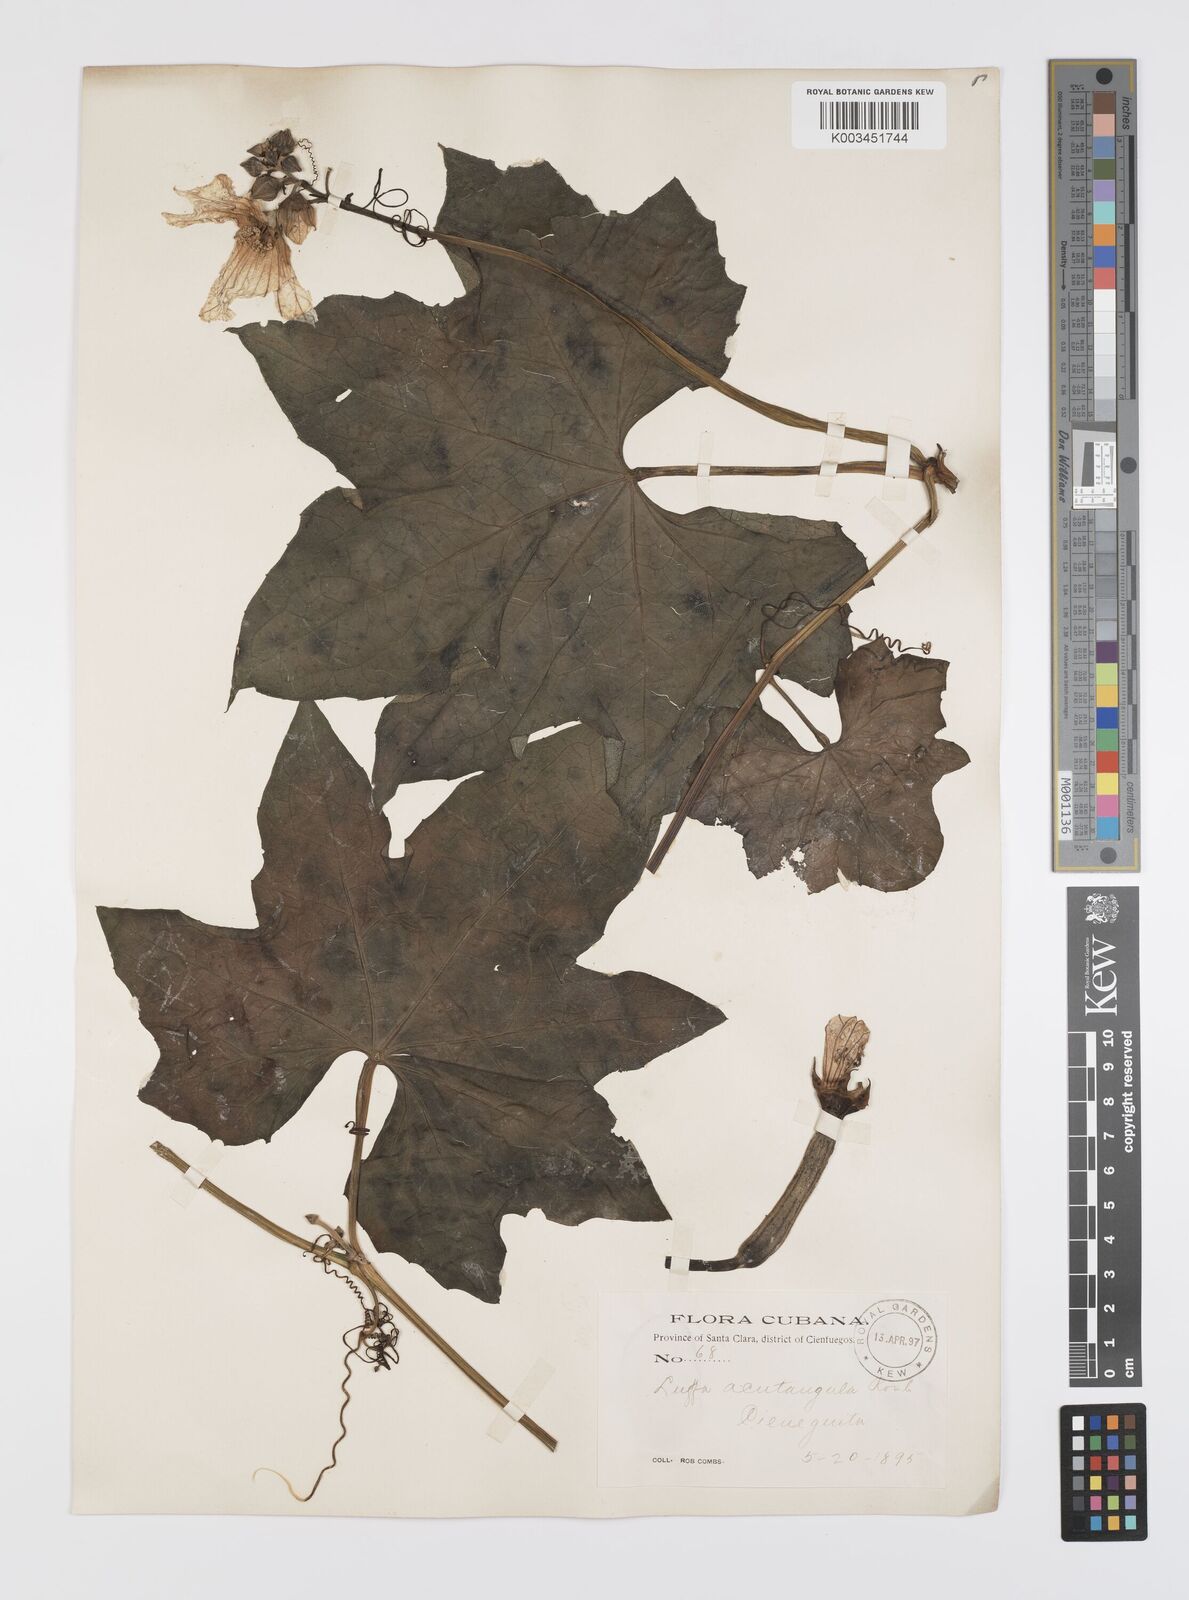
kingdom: Plantae
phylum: Tracheophyta
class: Magnoliopsida
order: Cucurbitales
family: Cucurbitaceae
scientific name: Cucurbitaceae
